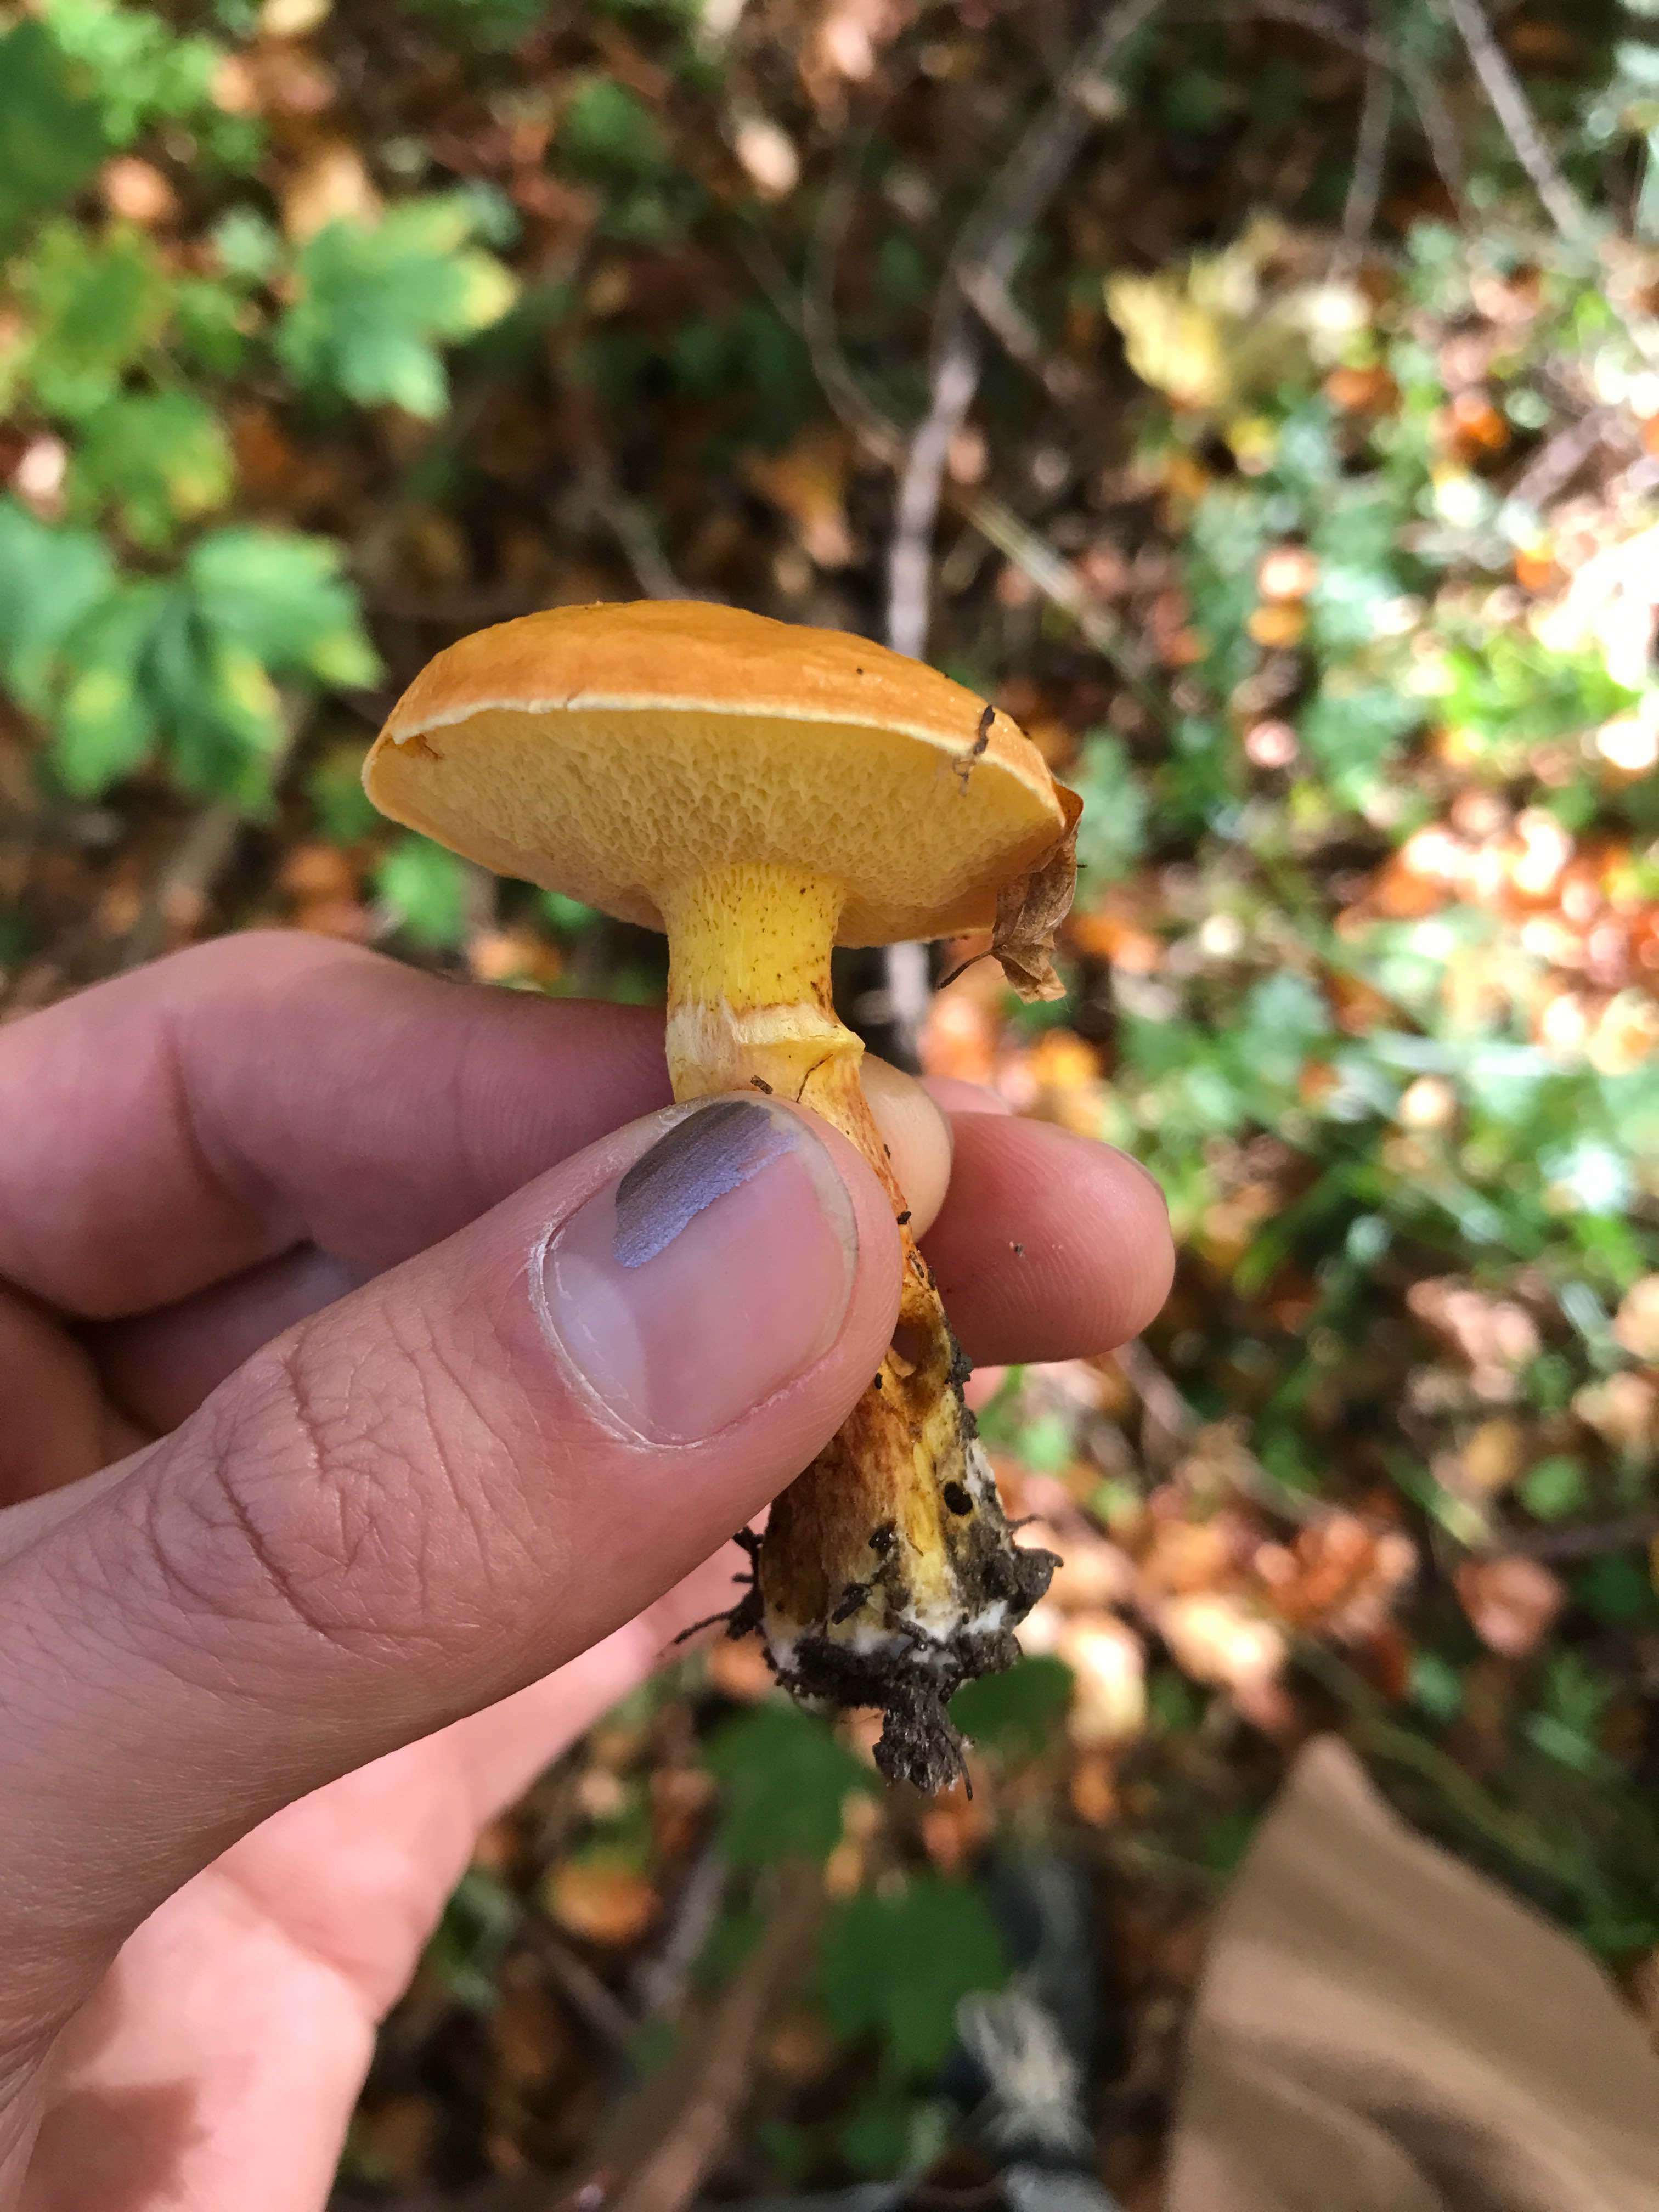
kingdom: Fungi
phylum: Basidiomycota
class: Agaricomycetes
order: Boletales
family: Suillaceae
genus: Suillus
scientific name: Suillus grevillei
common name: lærke-slimrørhat
